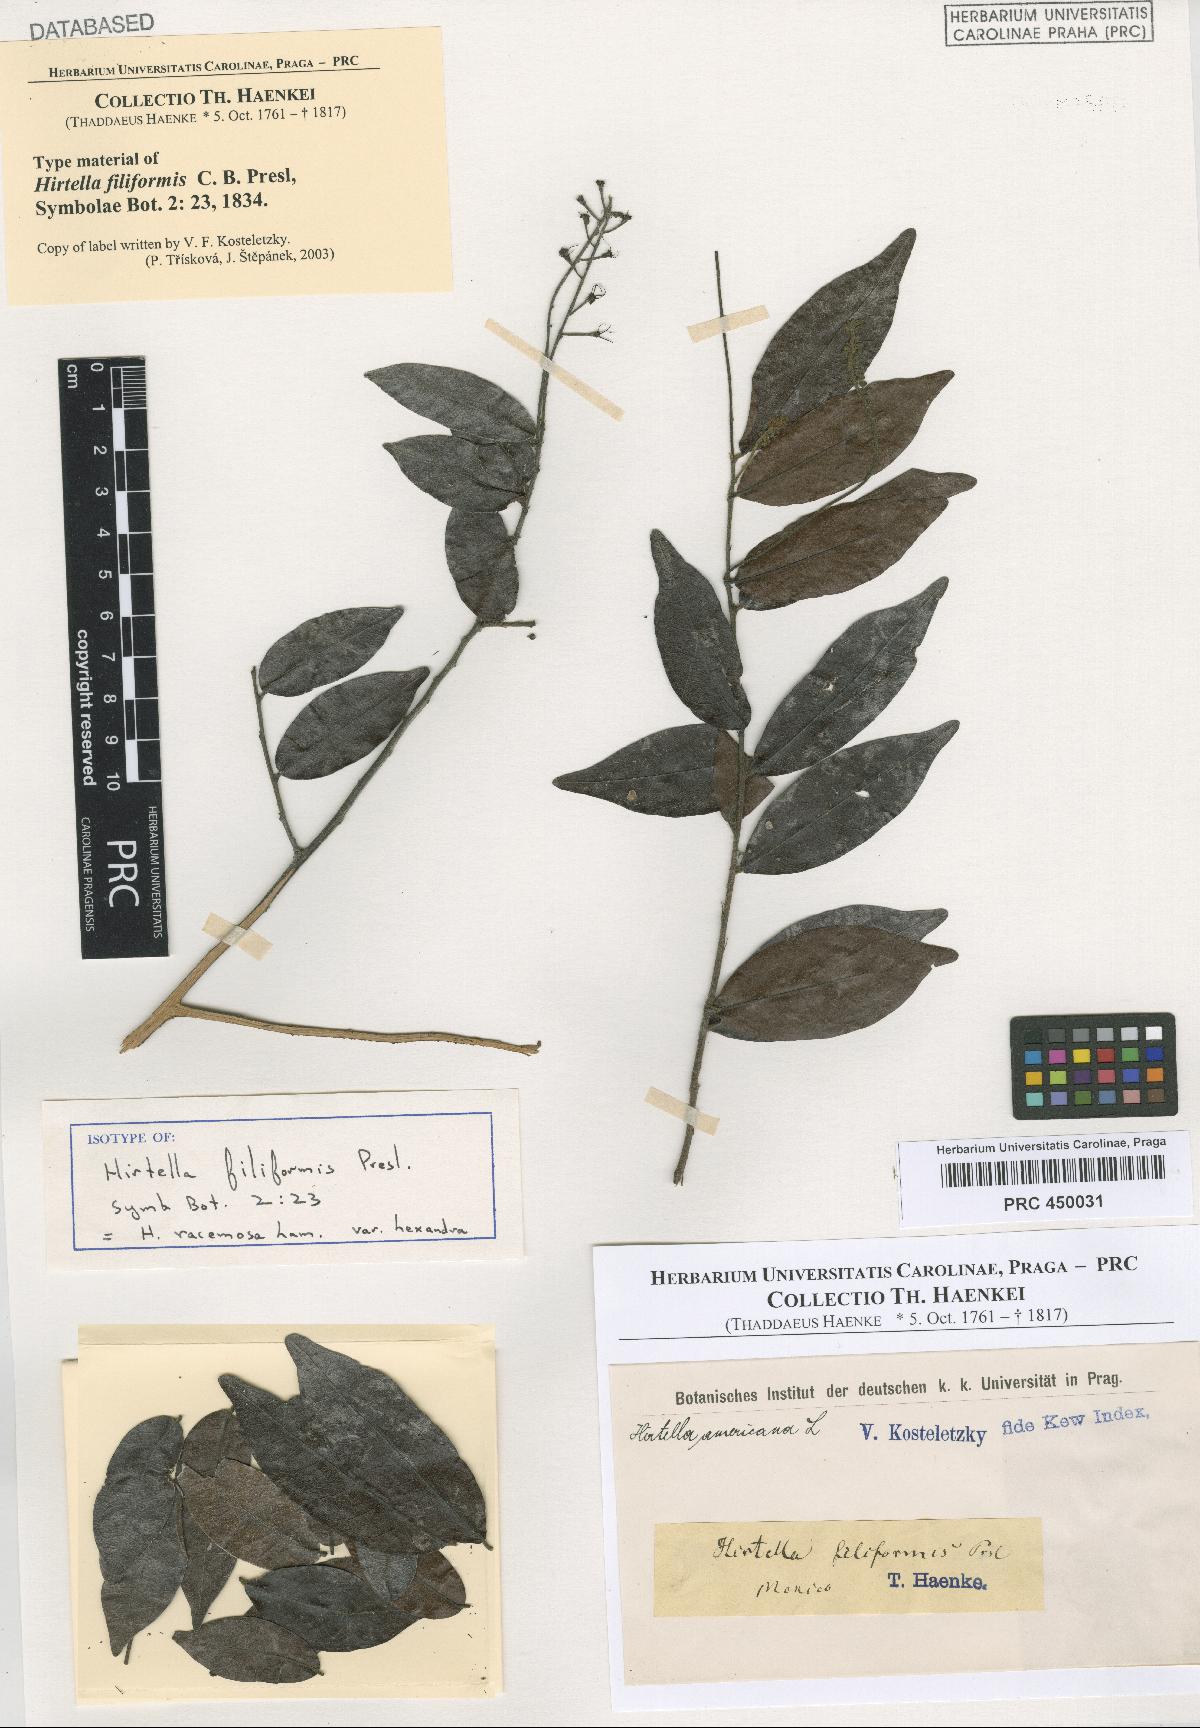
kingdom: Plantae
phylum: Tracheophyta
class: Magnoliopsida
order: Malpighiales
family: Chrysobalanaceae
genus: Hirtella
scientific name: Hirtella racemosa
